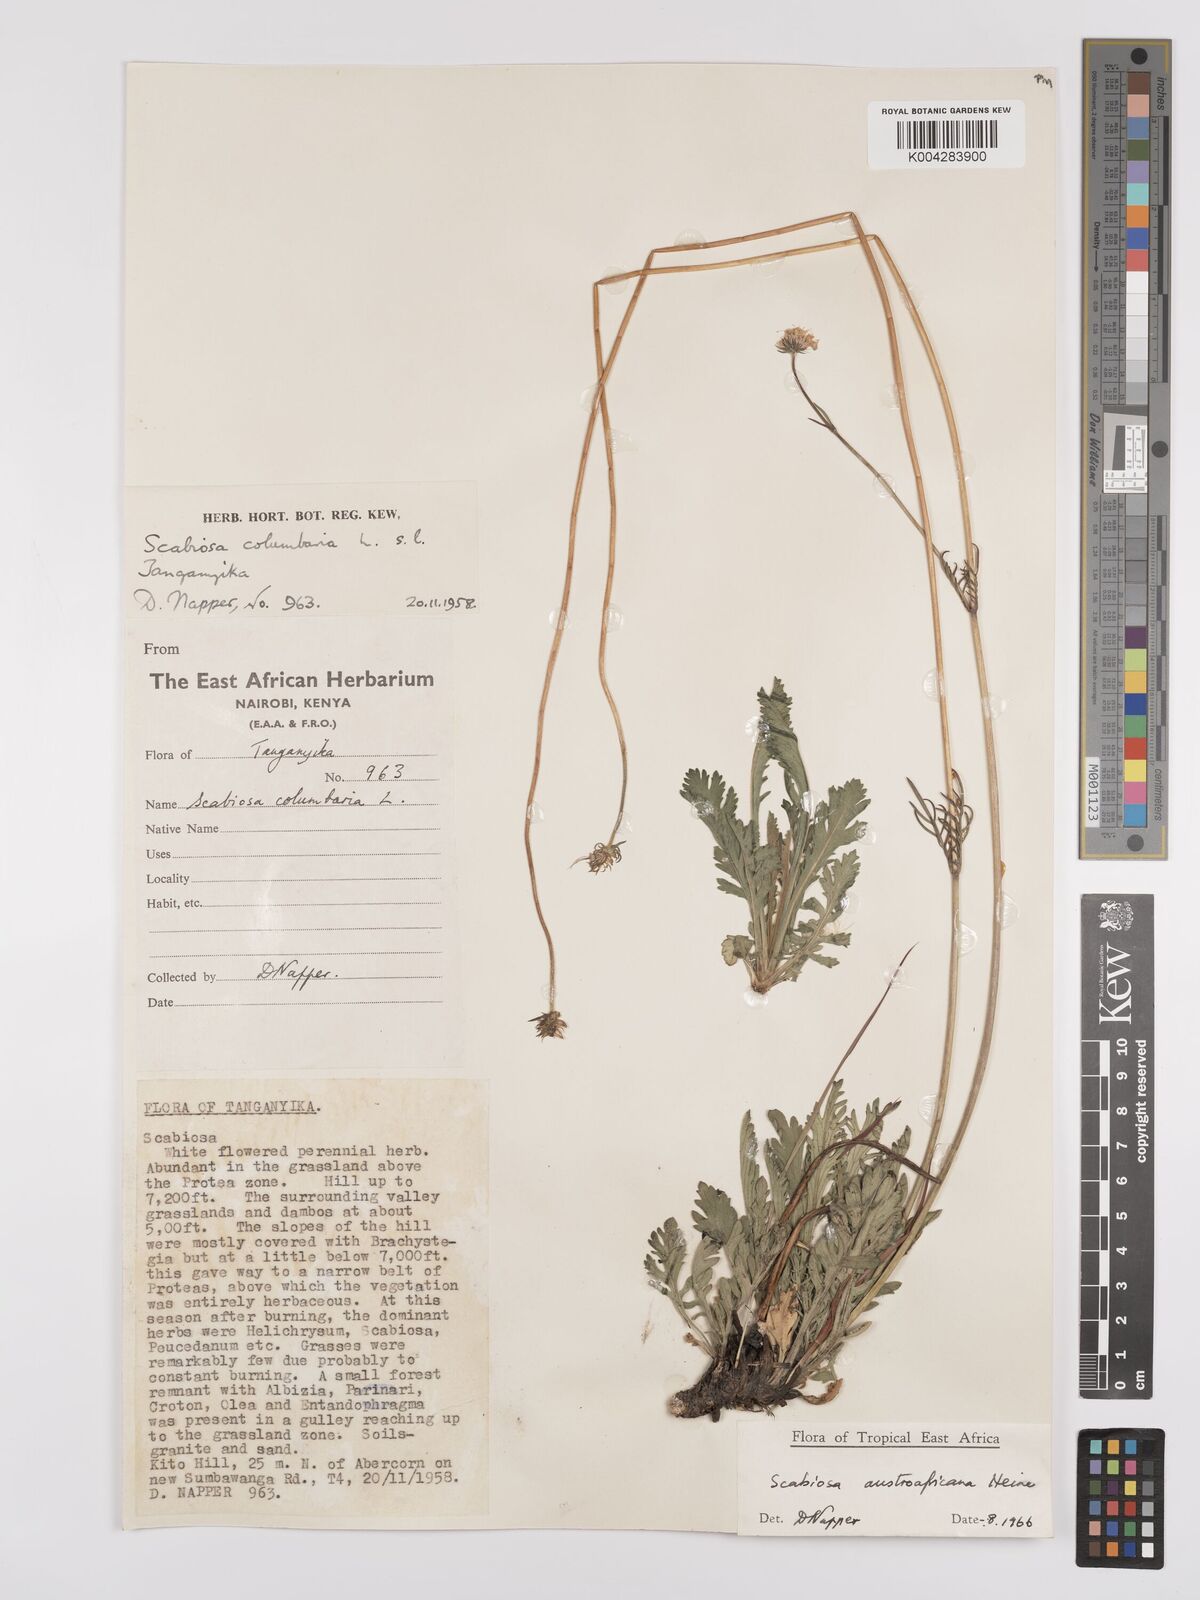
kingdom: Plantae
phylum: Tracheophyta
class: Magnoliopsida
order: Dipsacales
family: Caprifoliaceae
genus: Scabiosa
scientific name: Scabiosa austroafricana
